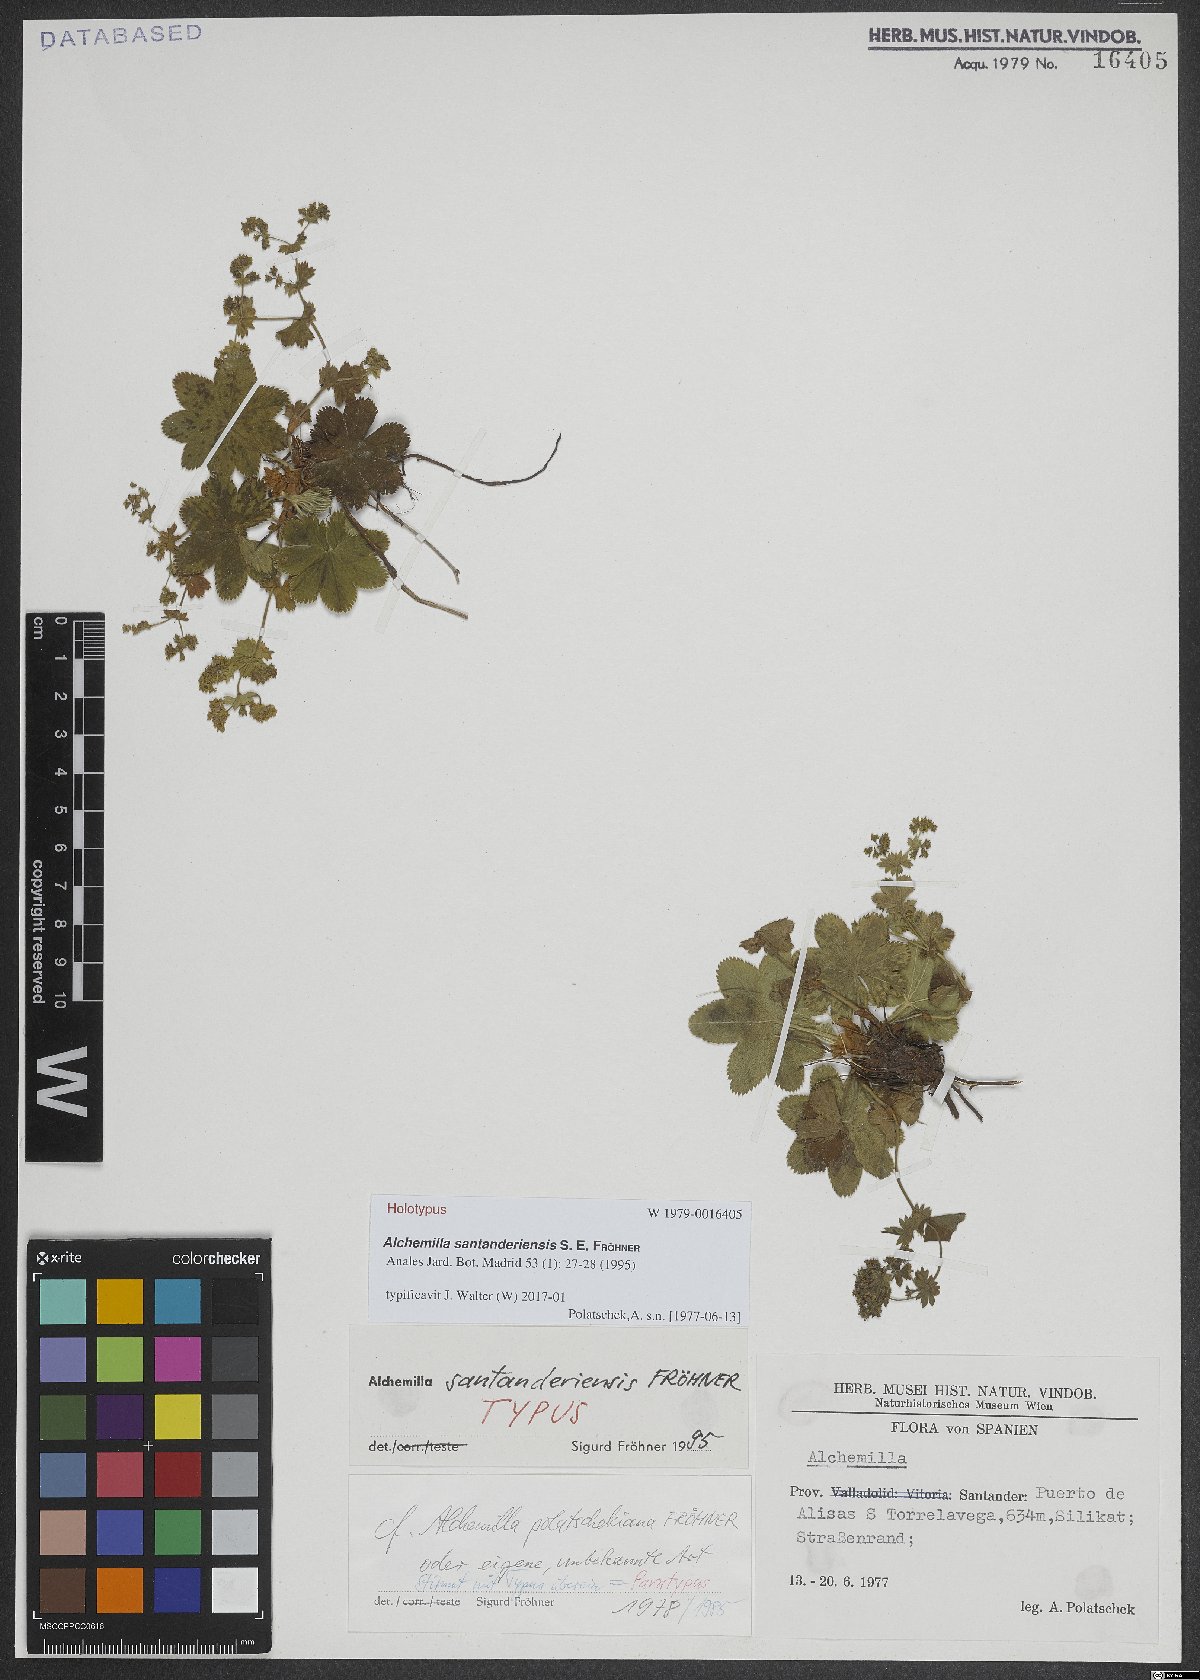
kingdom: Plantae
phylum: Tracheophyta
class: Magnoliopsida
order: Rosales
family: Rosaceae
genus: Alchemilla
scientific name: Alchemilla santanderiensis
